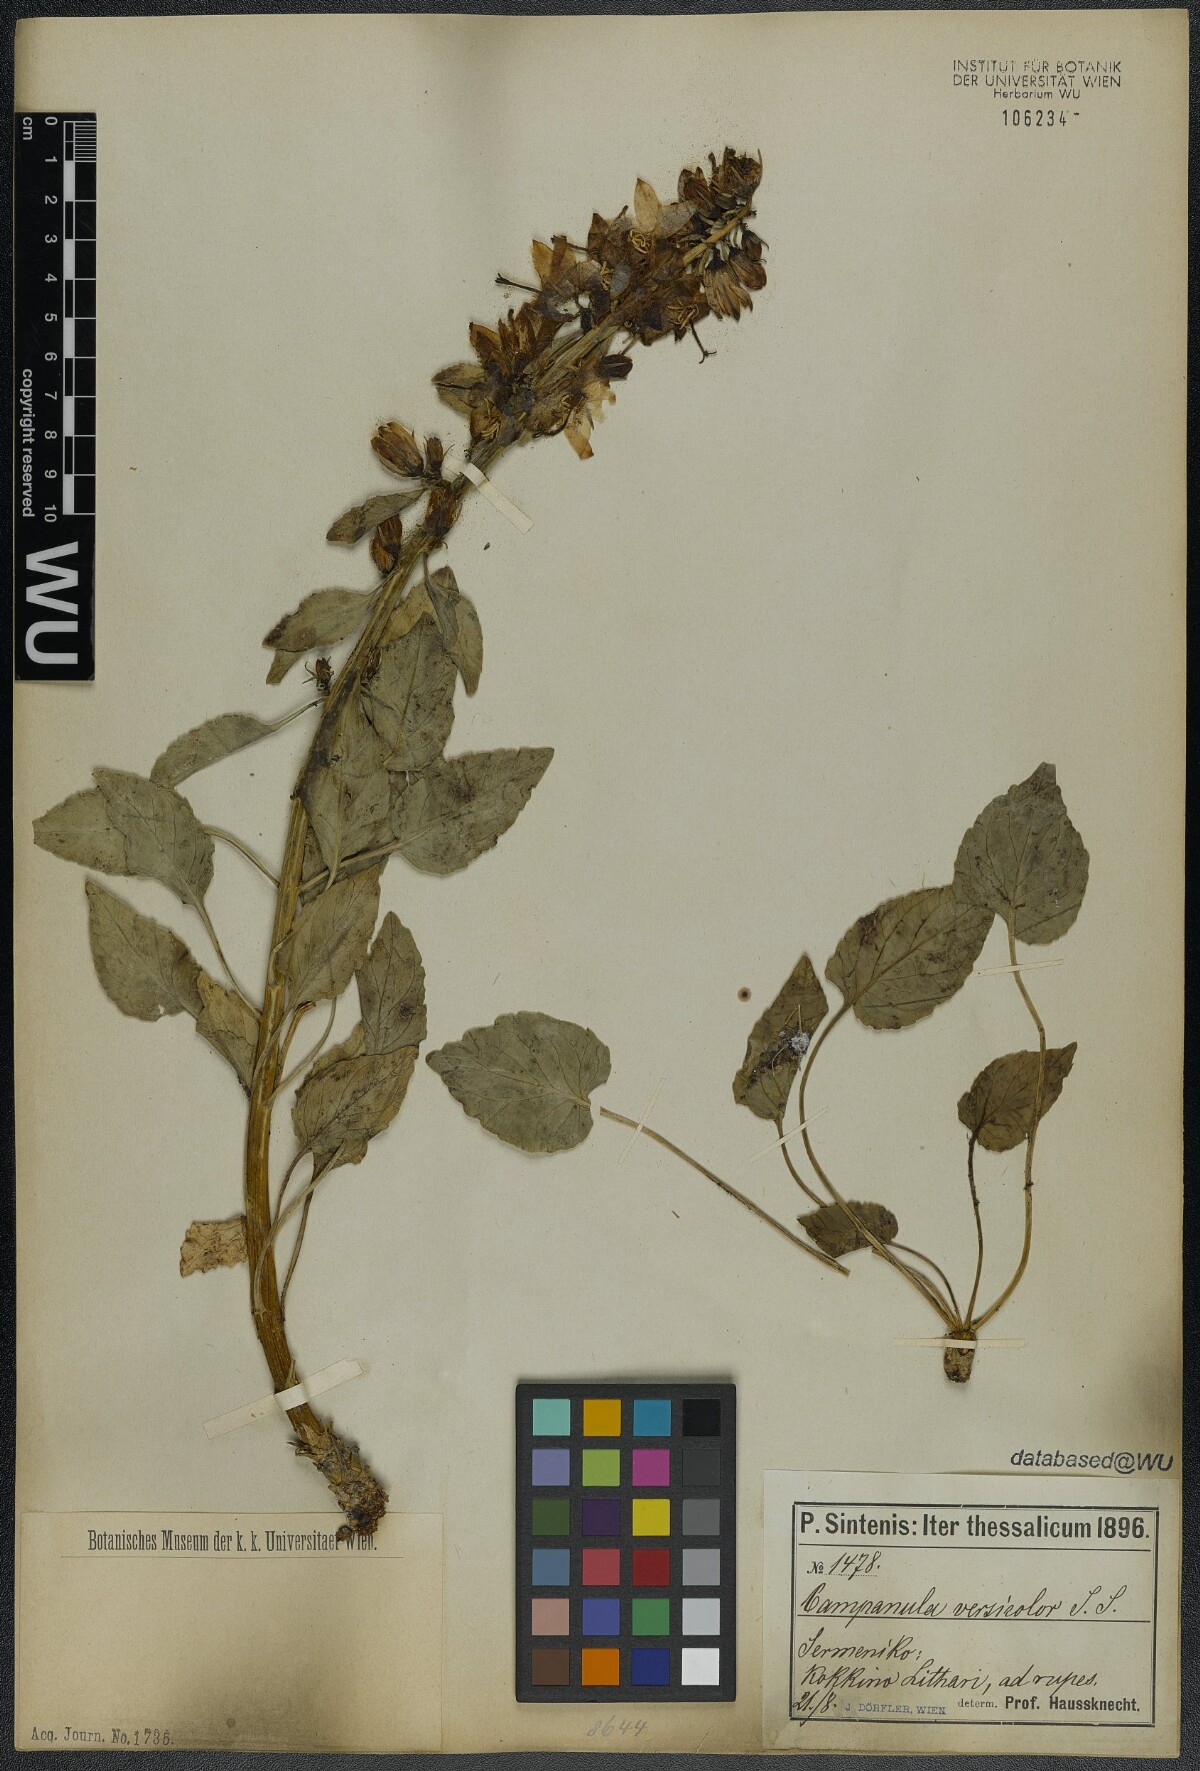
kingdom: Plantae
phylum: Tracheophyta
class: Magnoliopsida
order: Asterales
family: Campanulaceae
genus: Campanula
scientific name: Campanula versicolor
